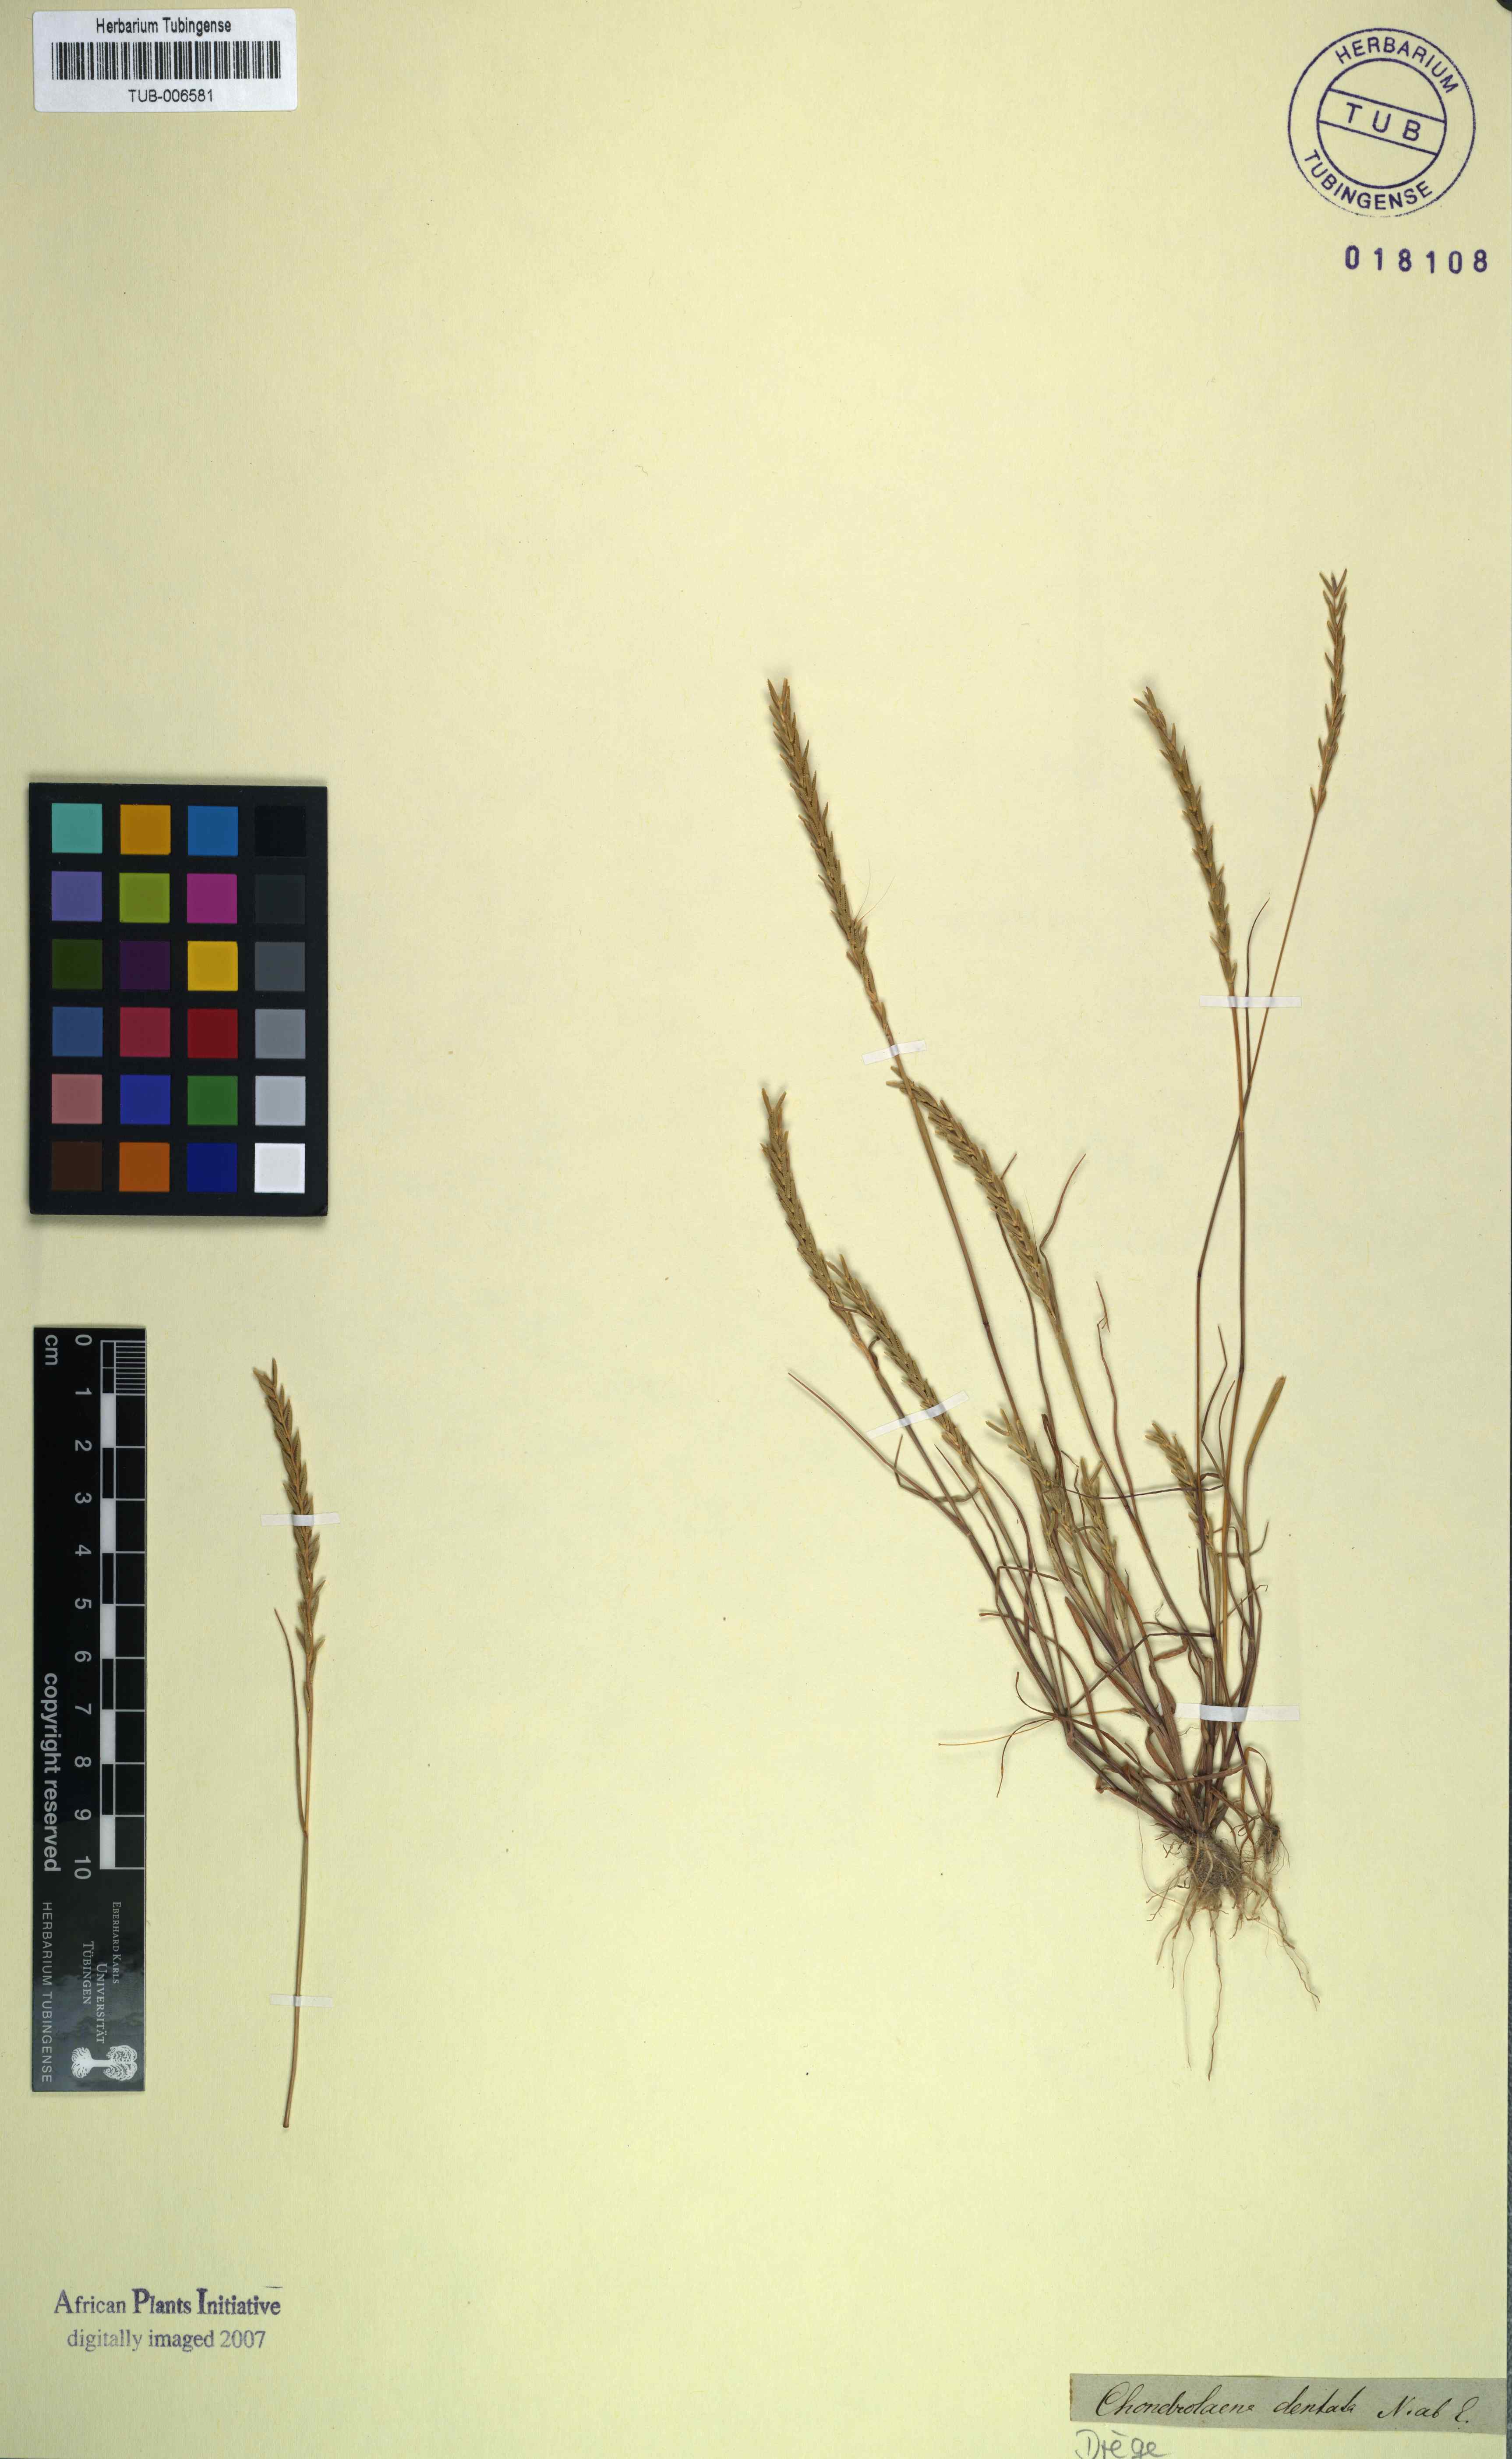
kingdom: Plantae
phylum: Tracheophyta
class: Liliopsida
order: Poales
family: Poaceae
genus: Pentameris
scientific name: Pentameris ecklonii
